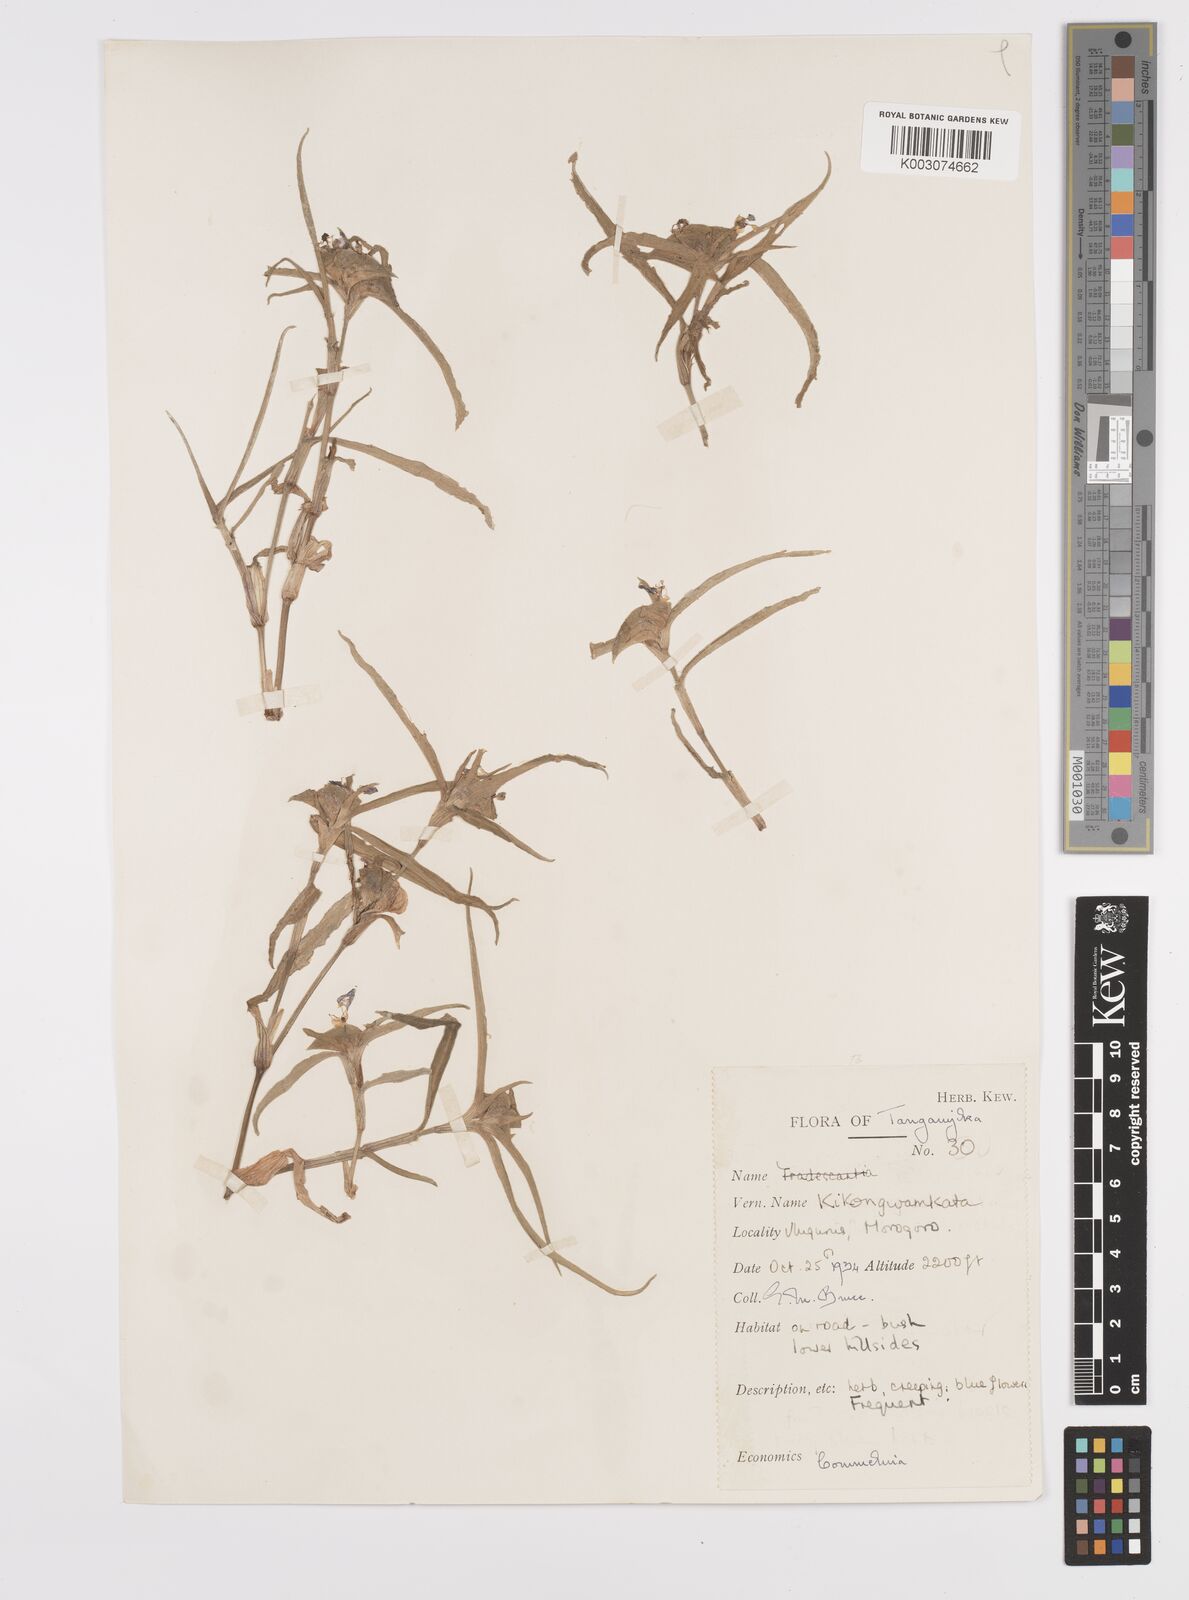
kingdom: Plantae
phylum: Tracheophyta
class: Liliopsida
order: Commelinales
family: Commelinaceae
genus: Commelina
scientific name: Commelina erecta
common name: Blousel blommetjie
